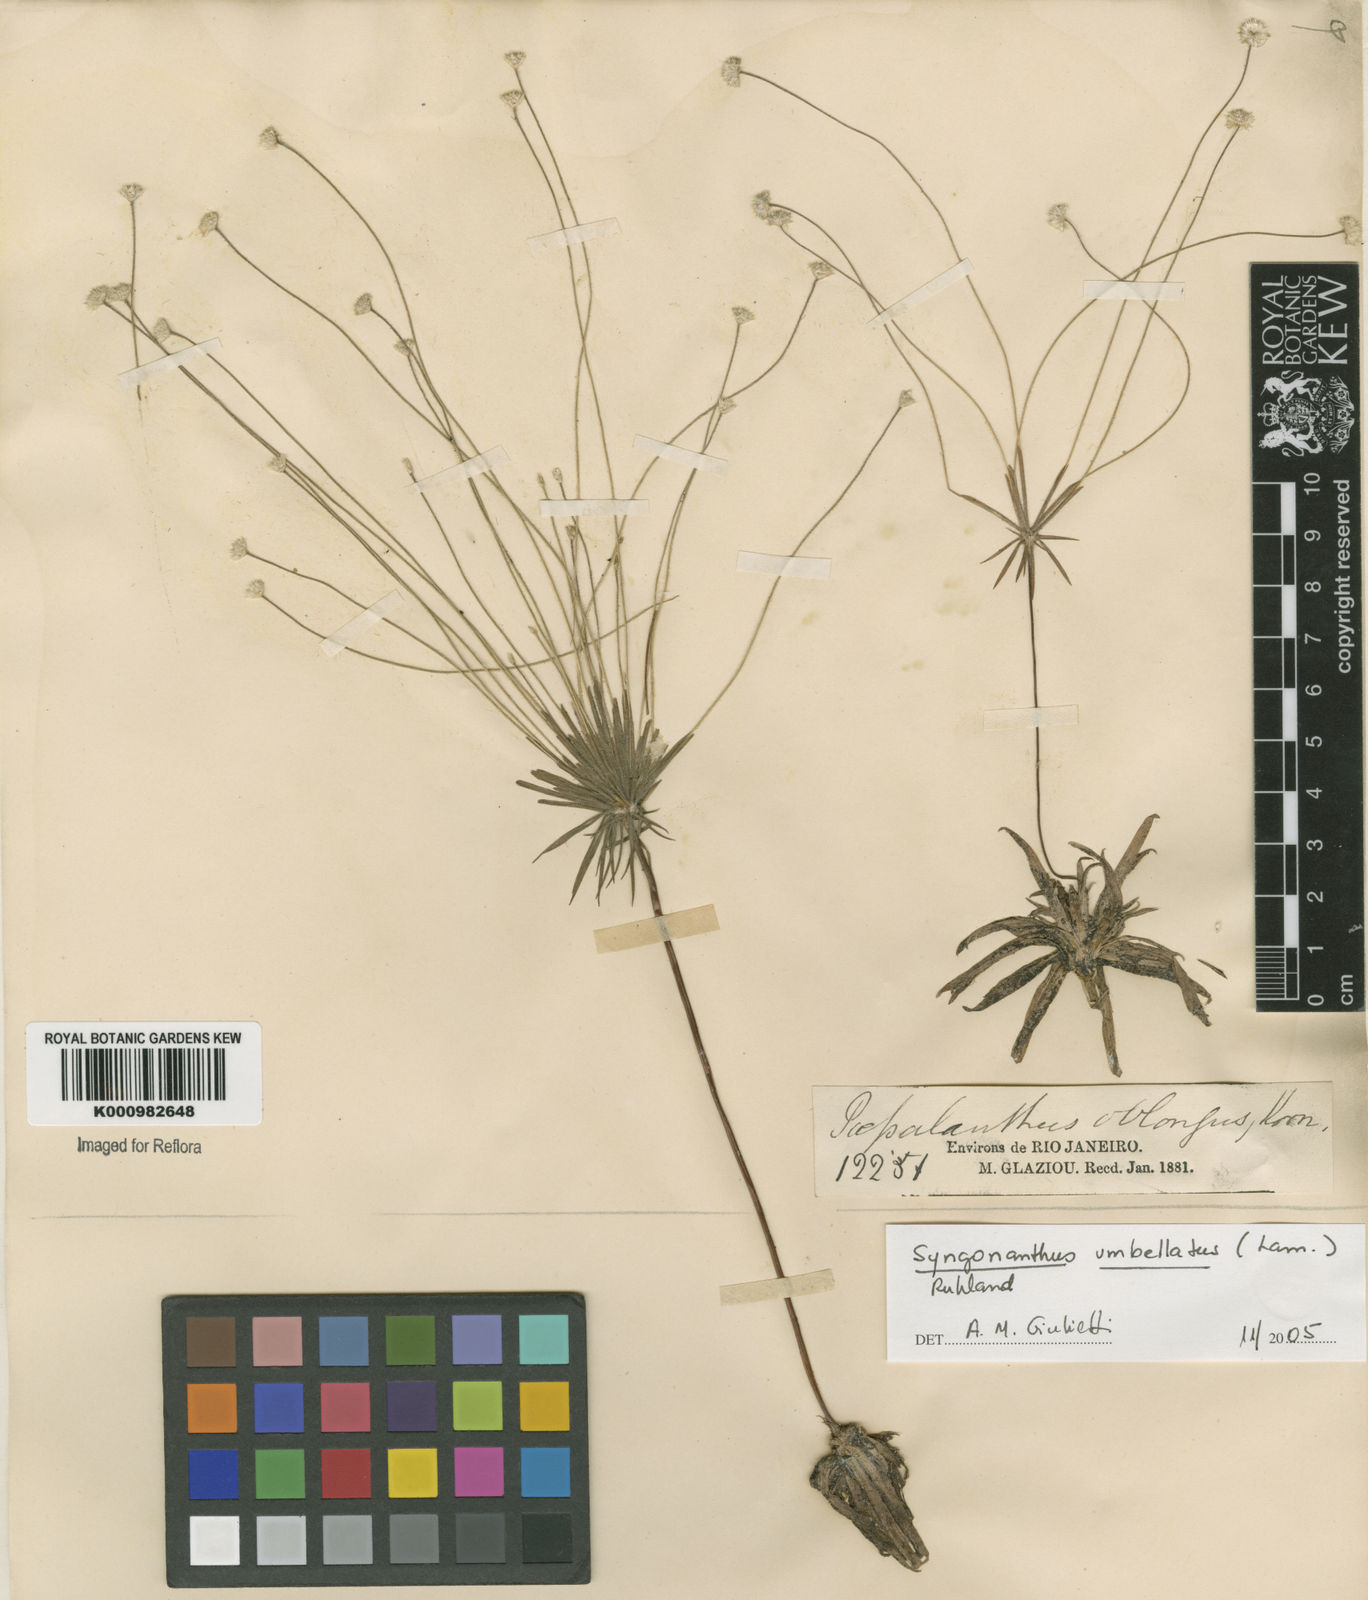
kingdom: Plantae
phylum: Tracheophyta
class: Liliopsida
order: Poales
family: Eriocaulaceae
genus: Syngonanthus
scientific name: Syngonanthus umbellatus
